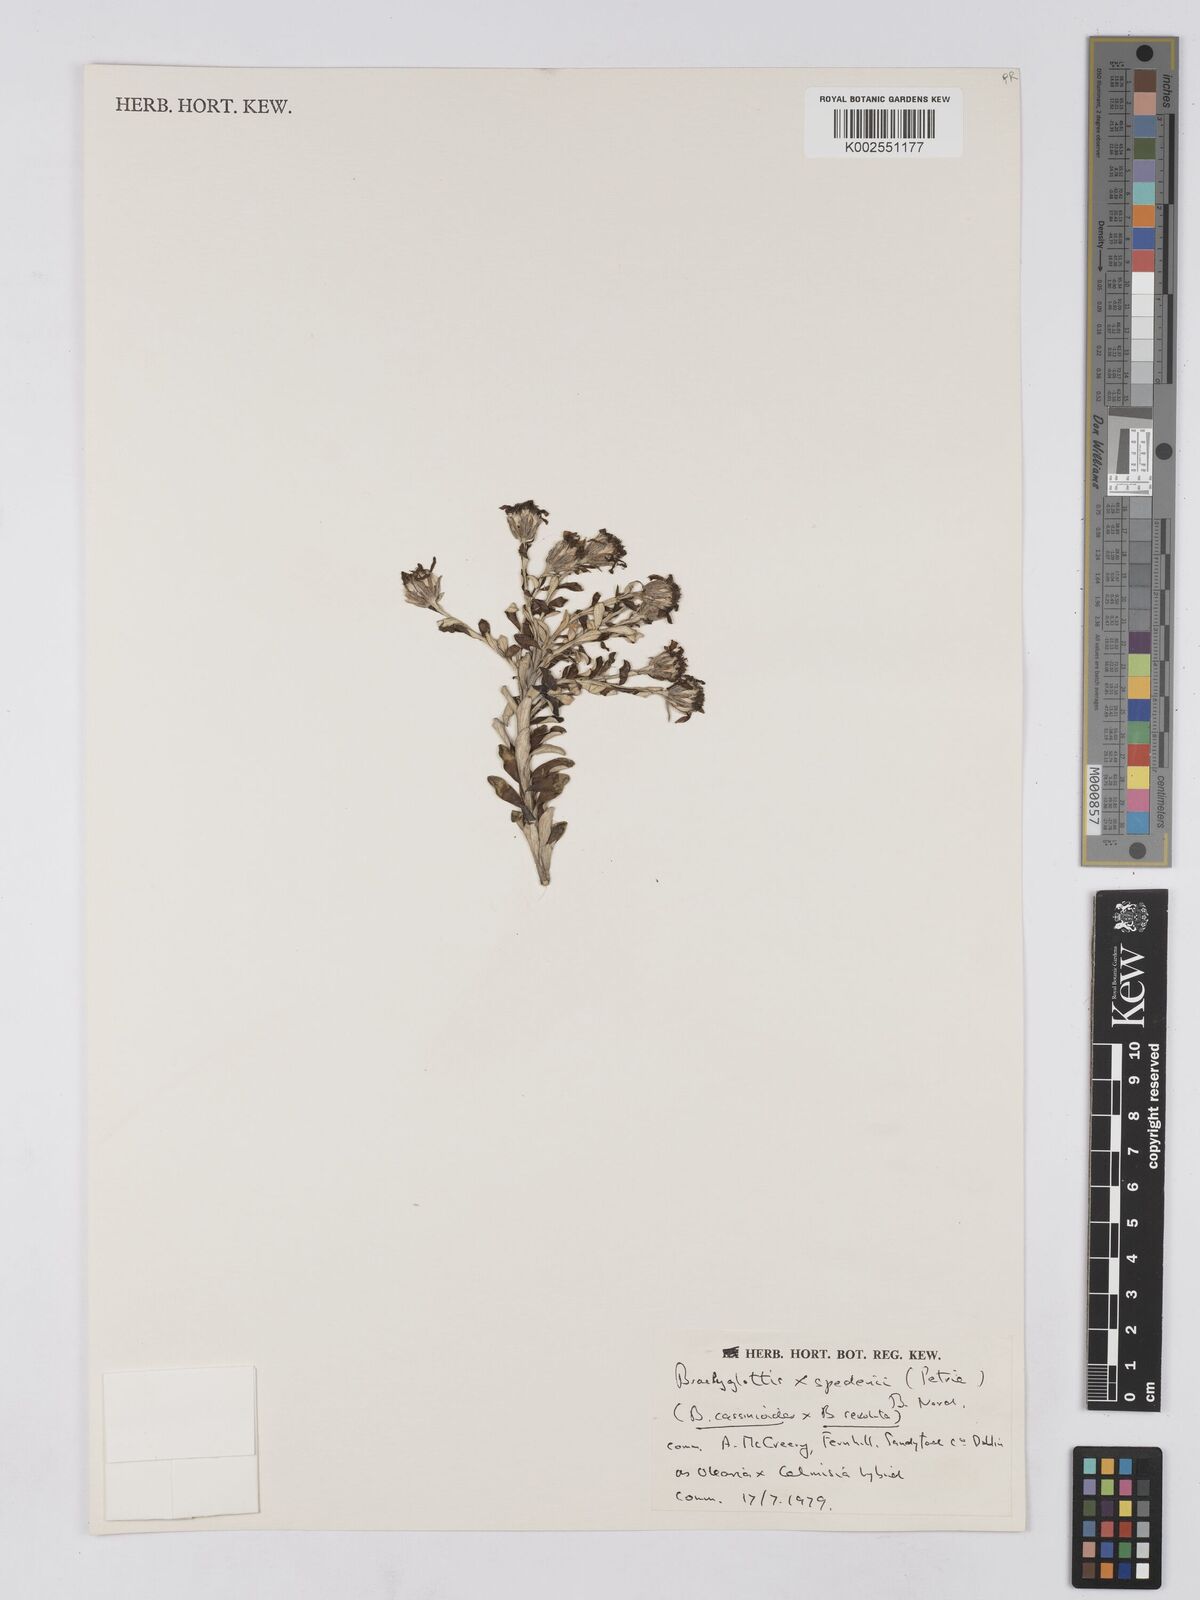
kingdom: Plantae
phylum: Tracheophyta
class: Magnoliopsida
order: Asterales
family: Asteraceae
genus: Brachyglottis
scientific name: Brachyglottis spedenii
